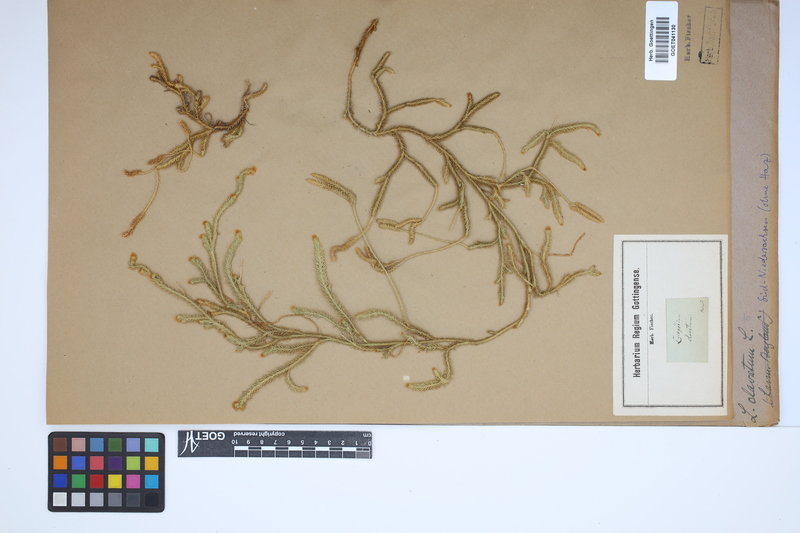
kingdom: Plantae
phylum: Tracheophyta
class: Lycopodiopsida
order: Lycopodiales
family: Lycopodiaceae
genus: Lycopodium
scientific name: Lycopodium clavatum
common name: Stag's-horn clubmoss
